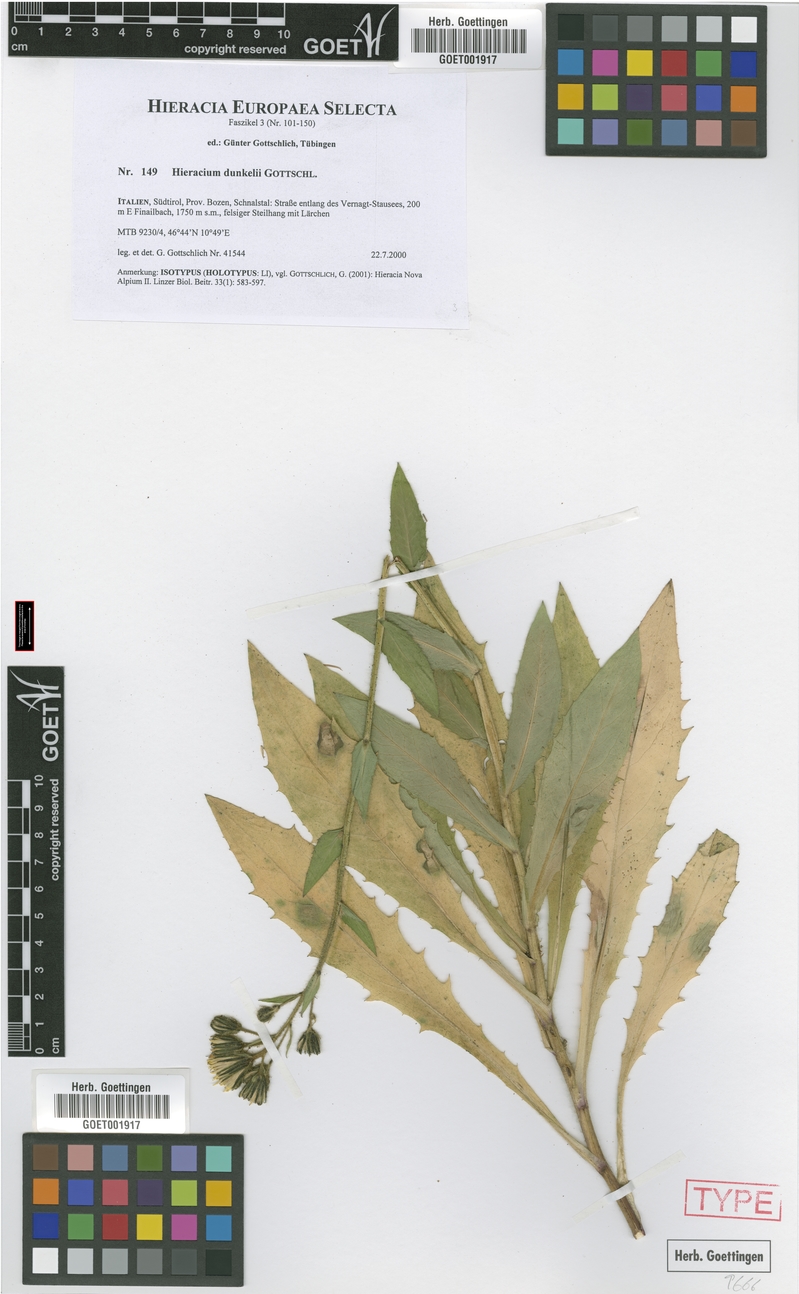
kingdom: Plantae
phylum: Tracheophyta
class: Magnoliopsida
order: Asterales
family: Asteraceae
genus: Hieracium
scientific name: Hieracium dunkelii
